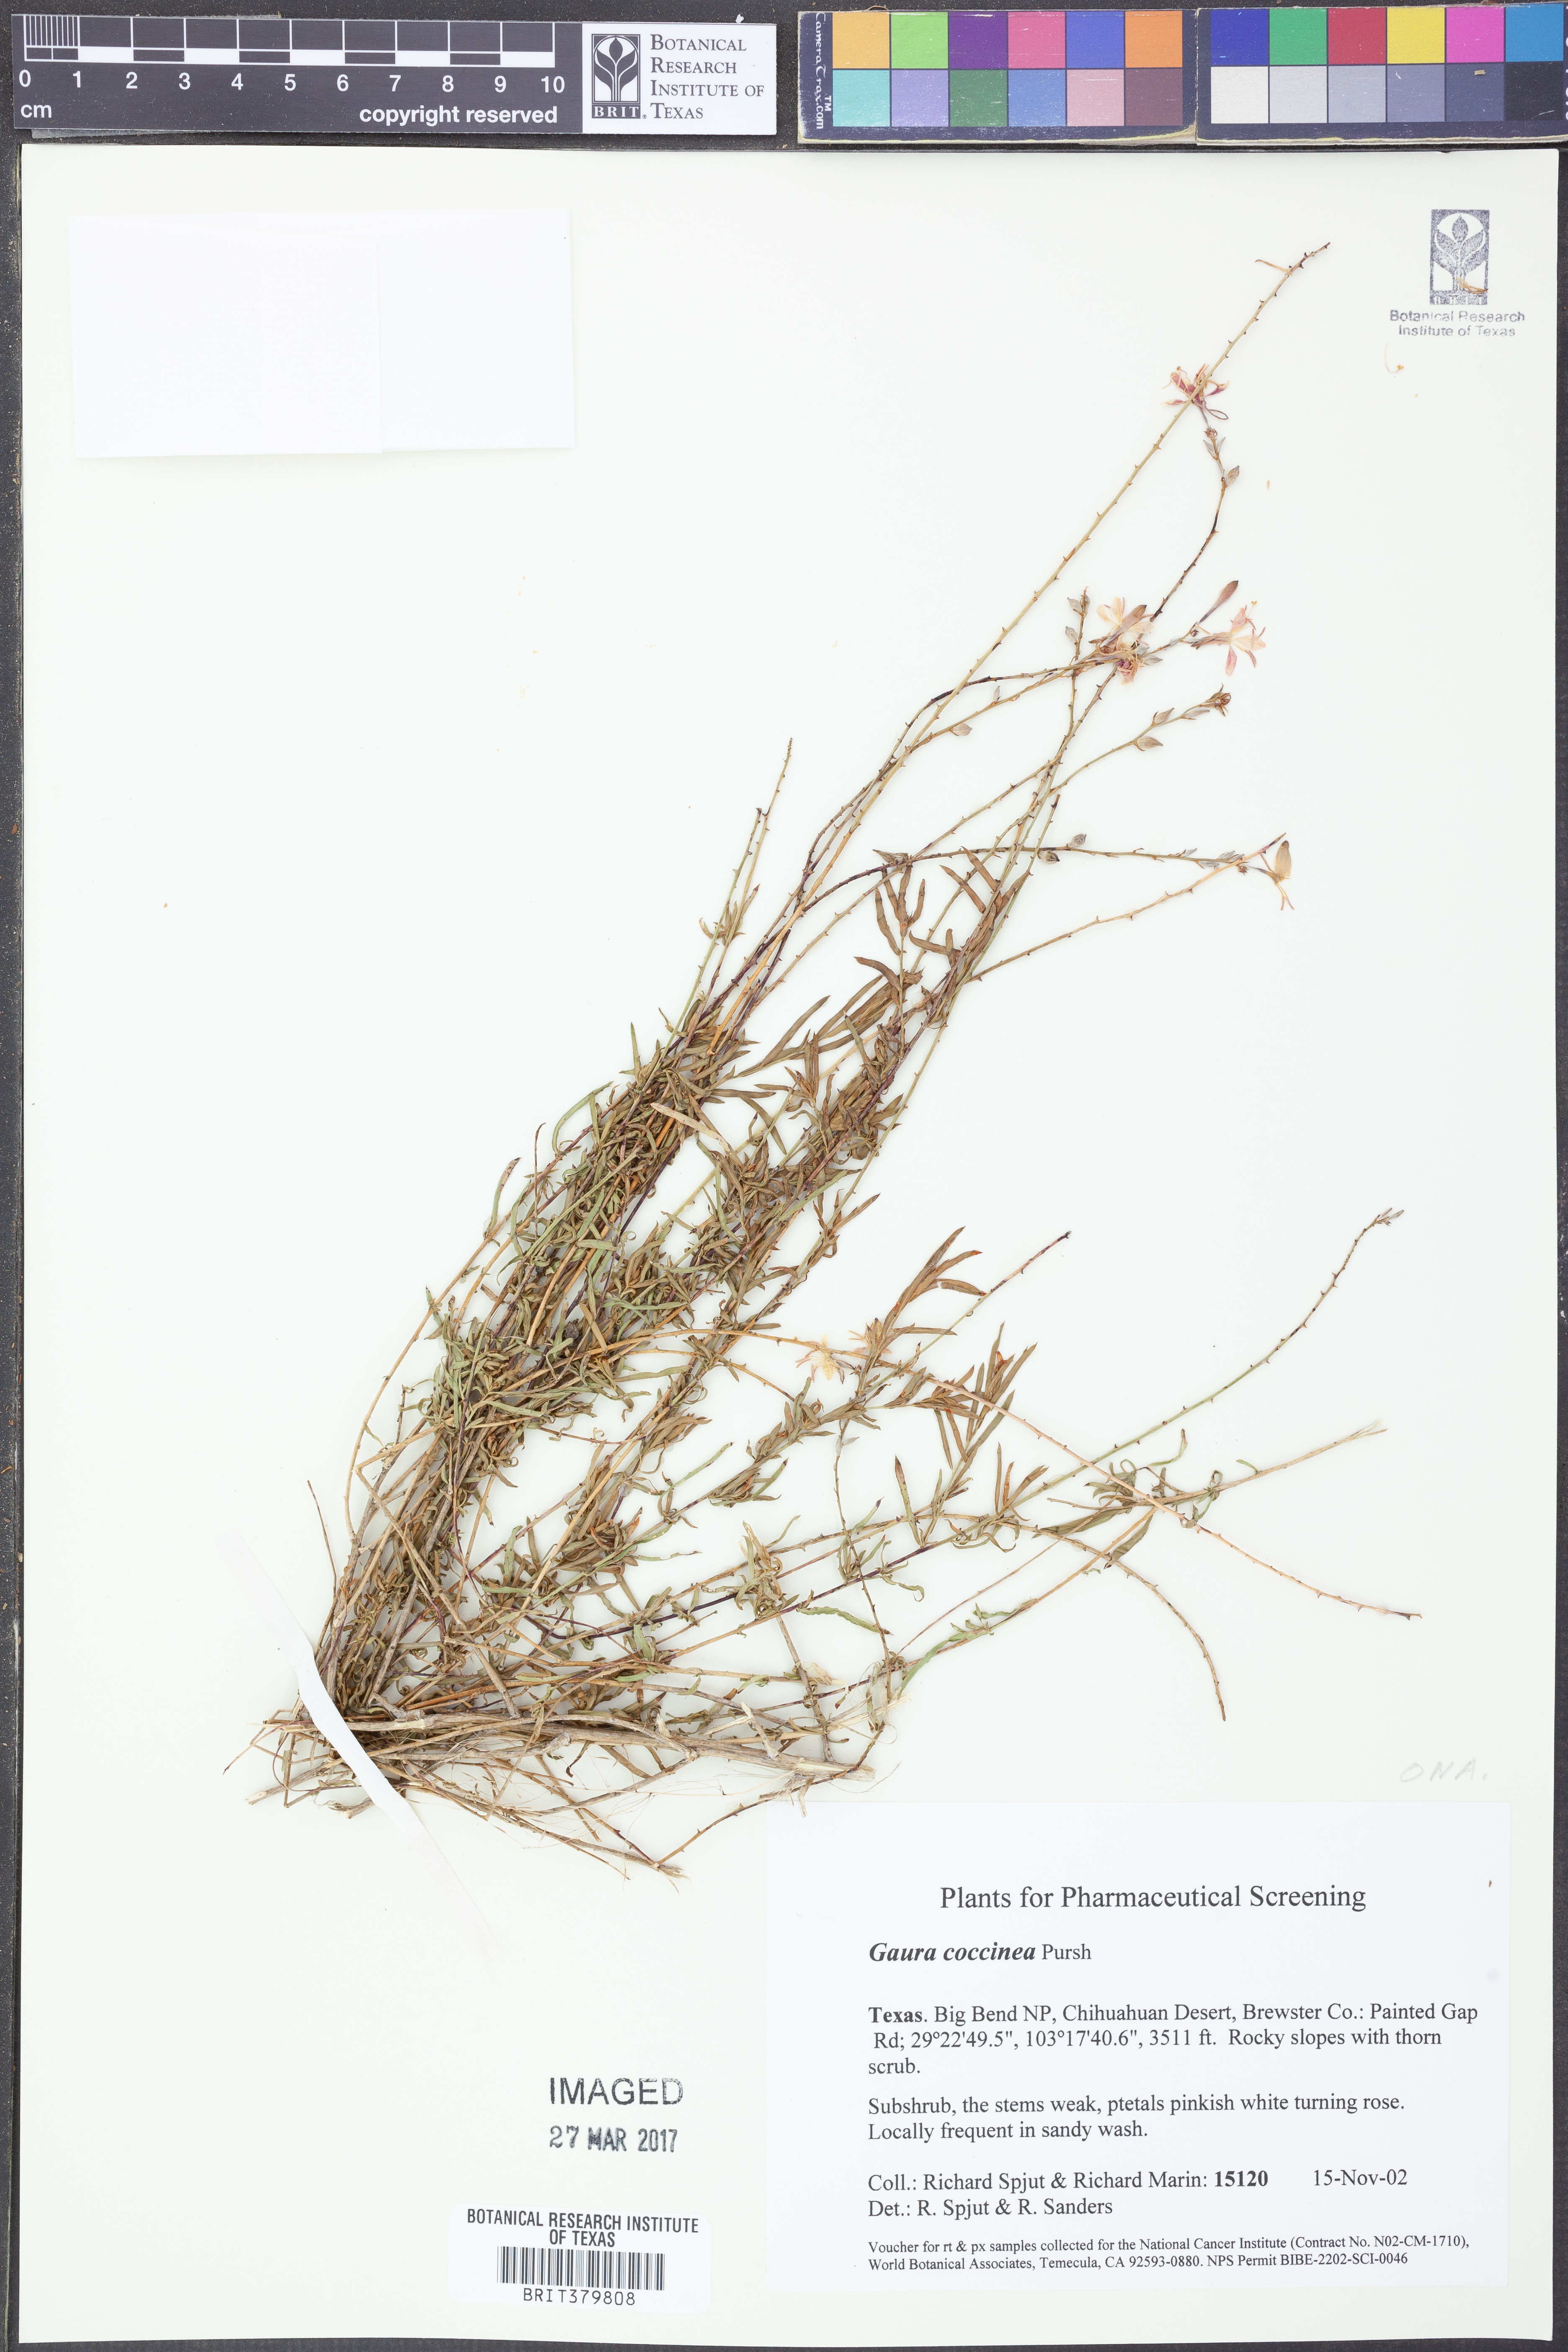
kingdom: Plantae
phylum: Tracheophyta
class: Magnoliopsida
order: Myrtales
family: Onagraceae
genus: Oenothera
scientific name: Oenothera suffrutescens
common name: Scarlet beeblossom
